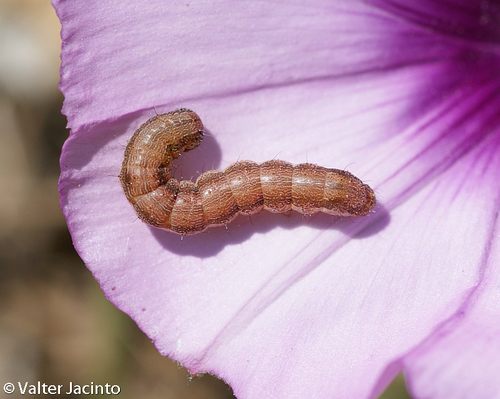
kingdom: Animalia
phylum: Arthropoda
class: Insecta
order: Lepidoptera
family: Noctuidae
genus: Helicoverpa
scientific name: Helicoverpa armigera
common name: Cotton bollworm
